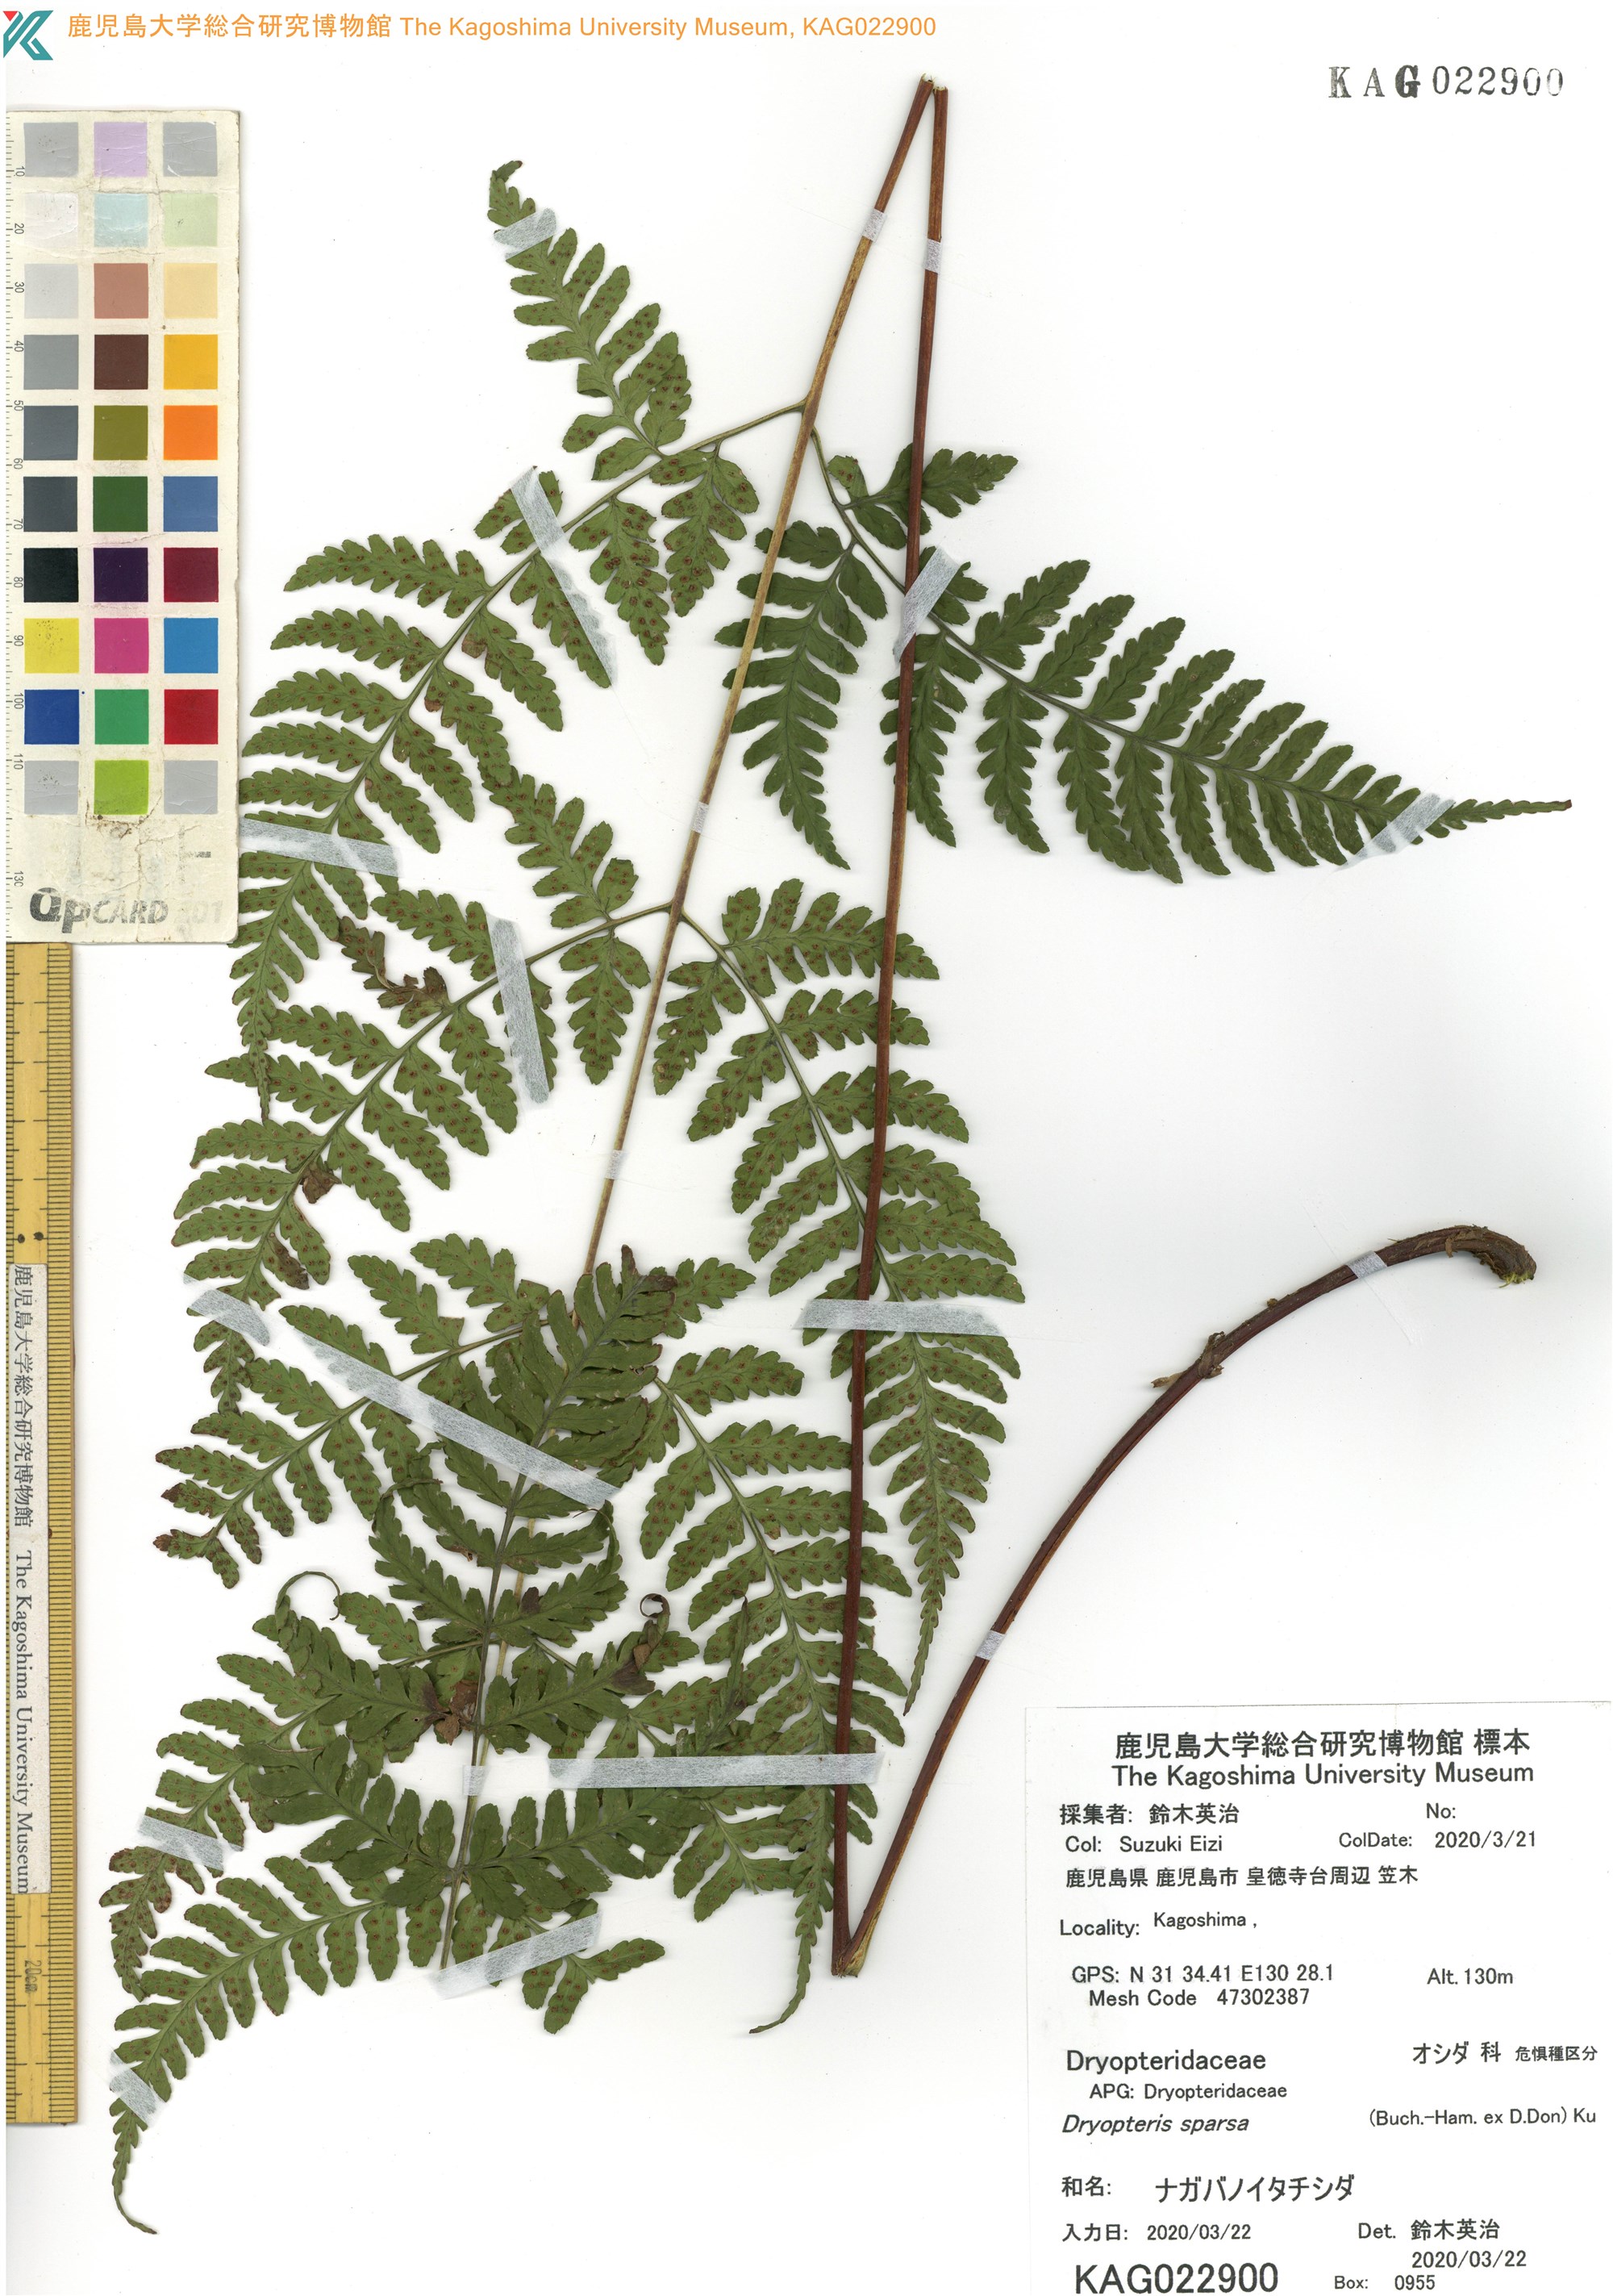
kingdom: Plantae
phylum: Tracheophyta
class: Polypodiopsida
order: Polypodiales
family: Dryopteridaceae
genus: Dryopteris
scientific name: Dryopteris sparsa
